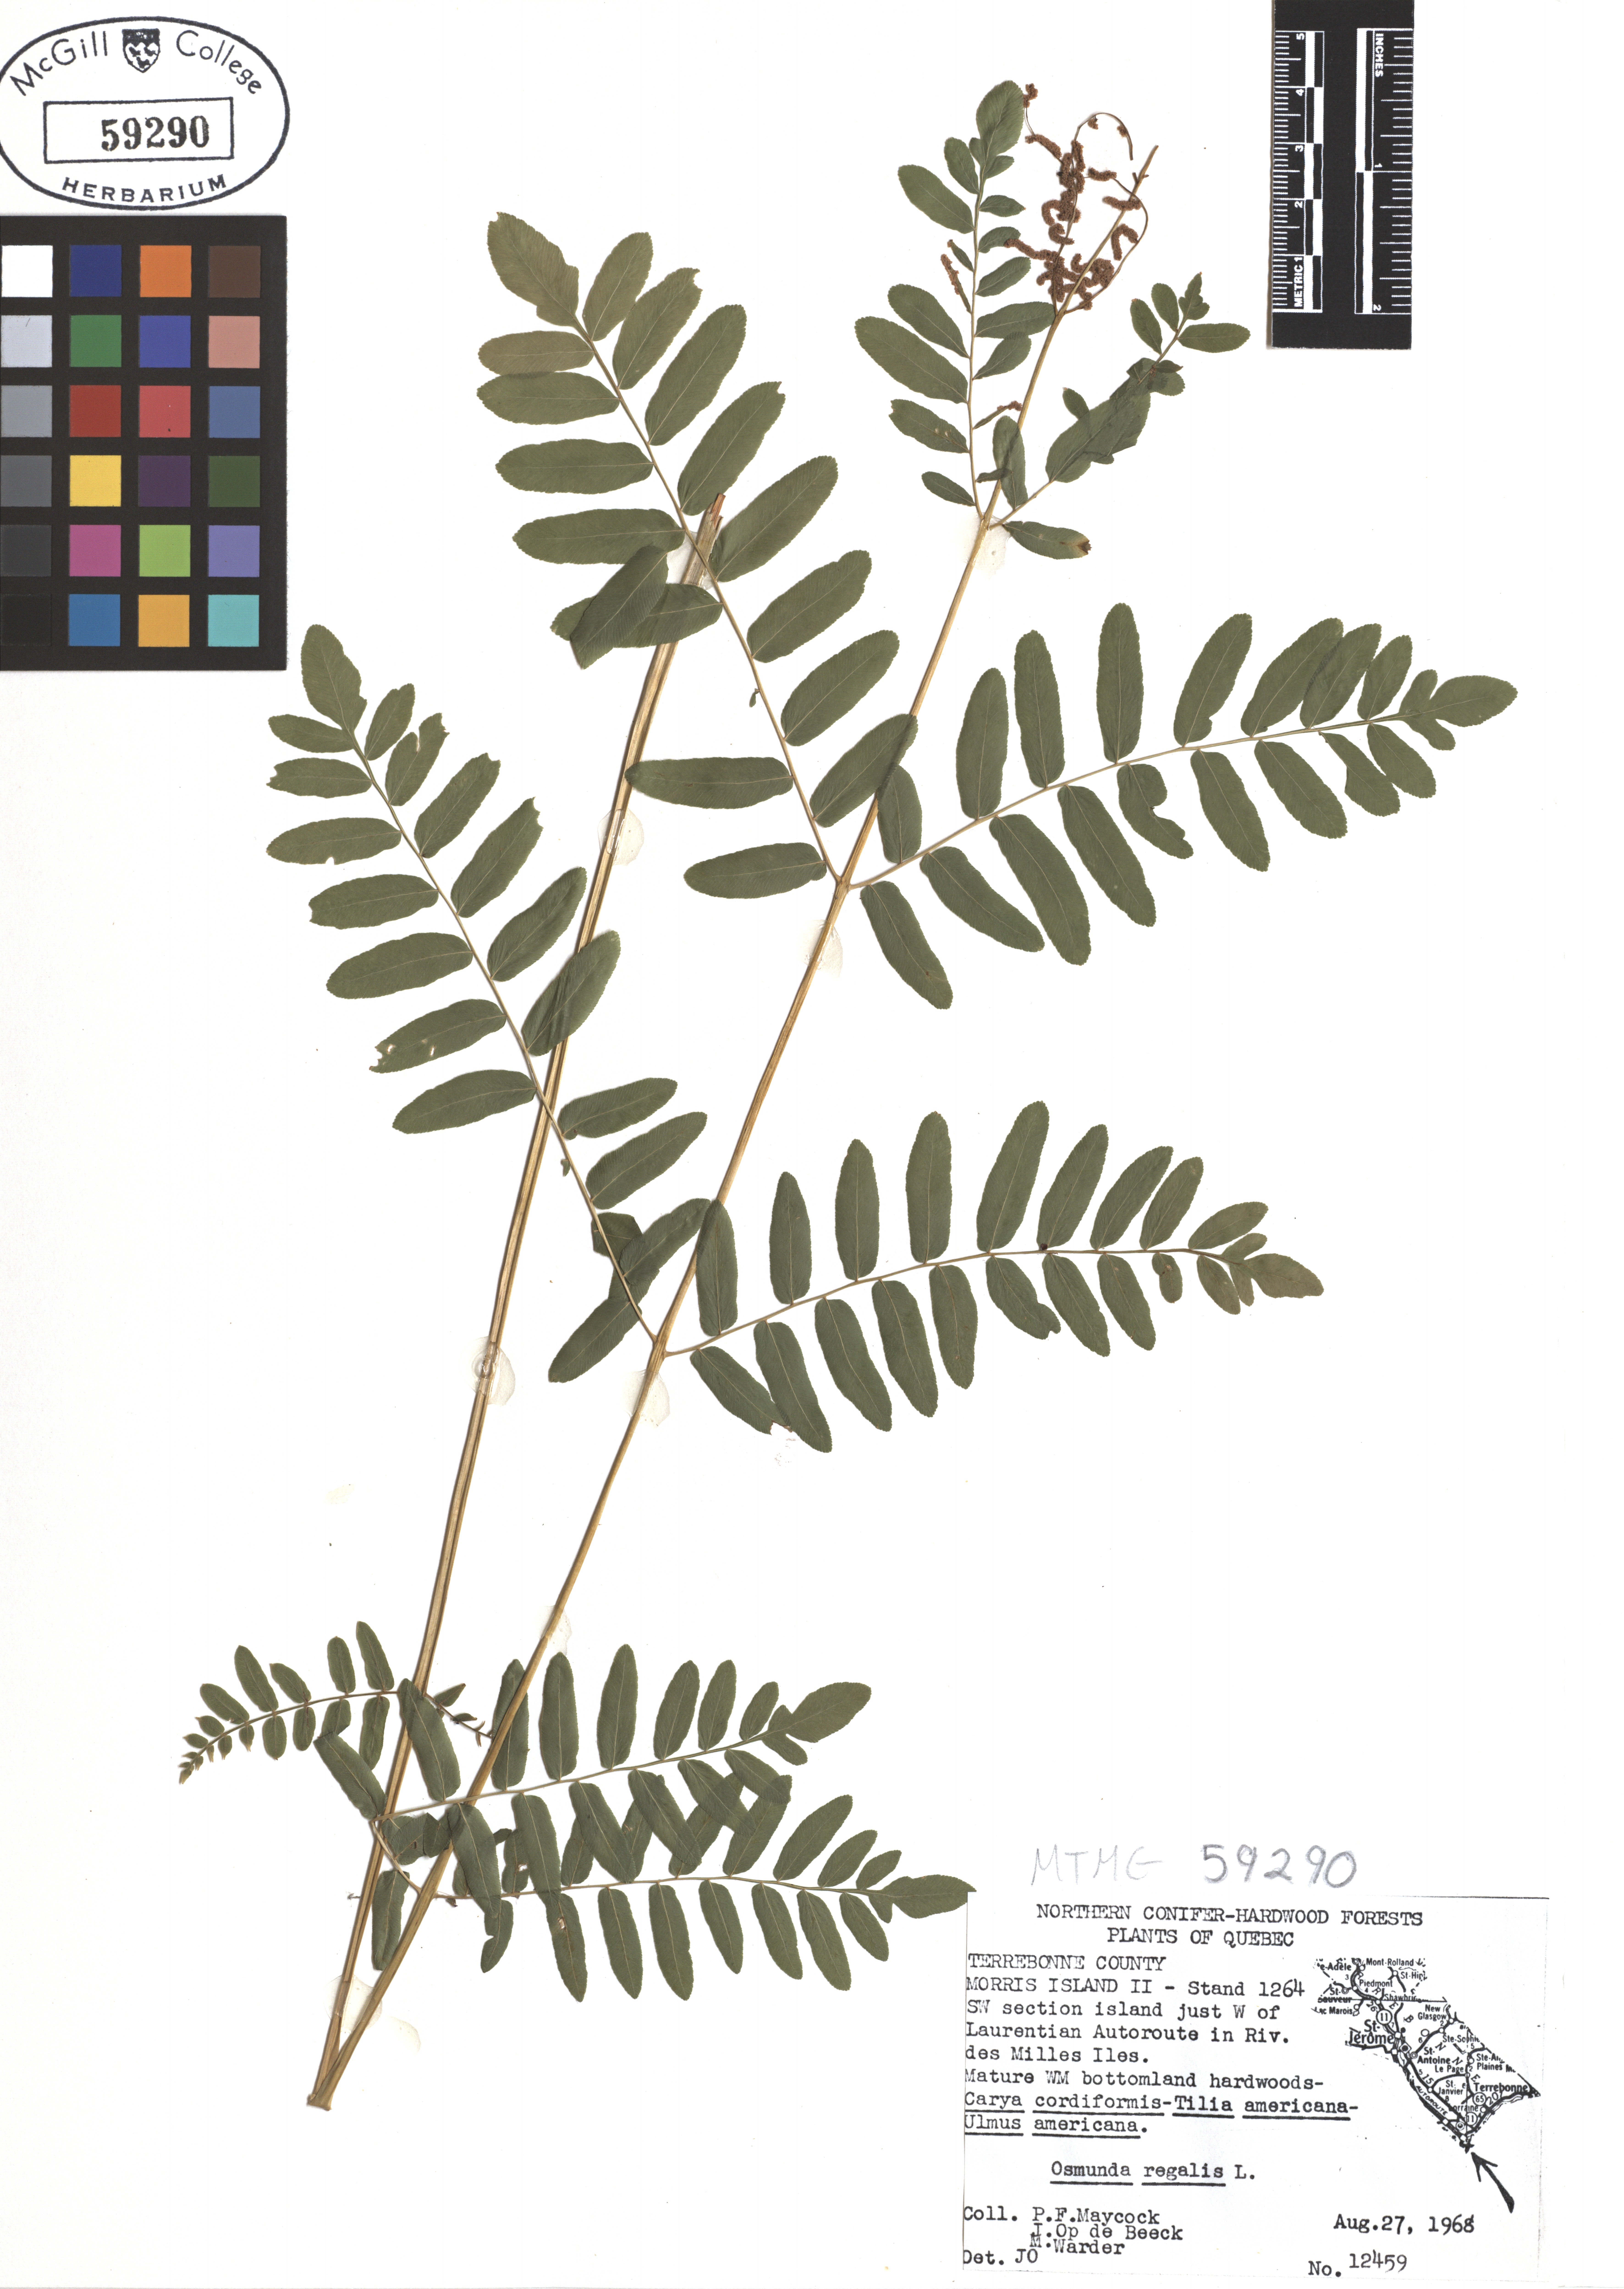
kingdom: Plantae
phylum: Tracheophyta
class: Polypodiopsida
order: Osmundales
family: Osmundaceae
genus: Osmunda
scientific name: Osmunda regalis
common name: Royal fern
